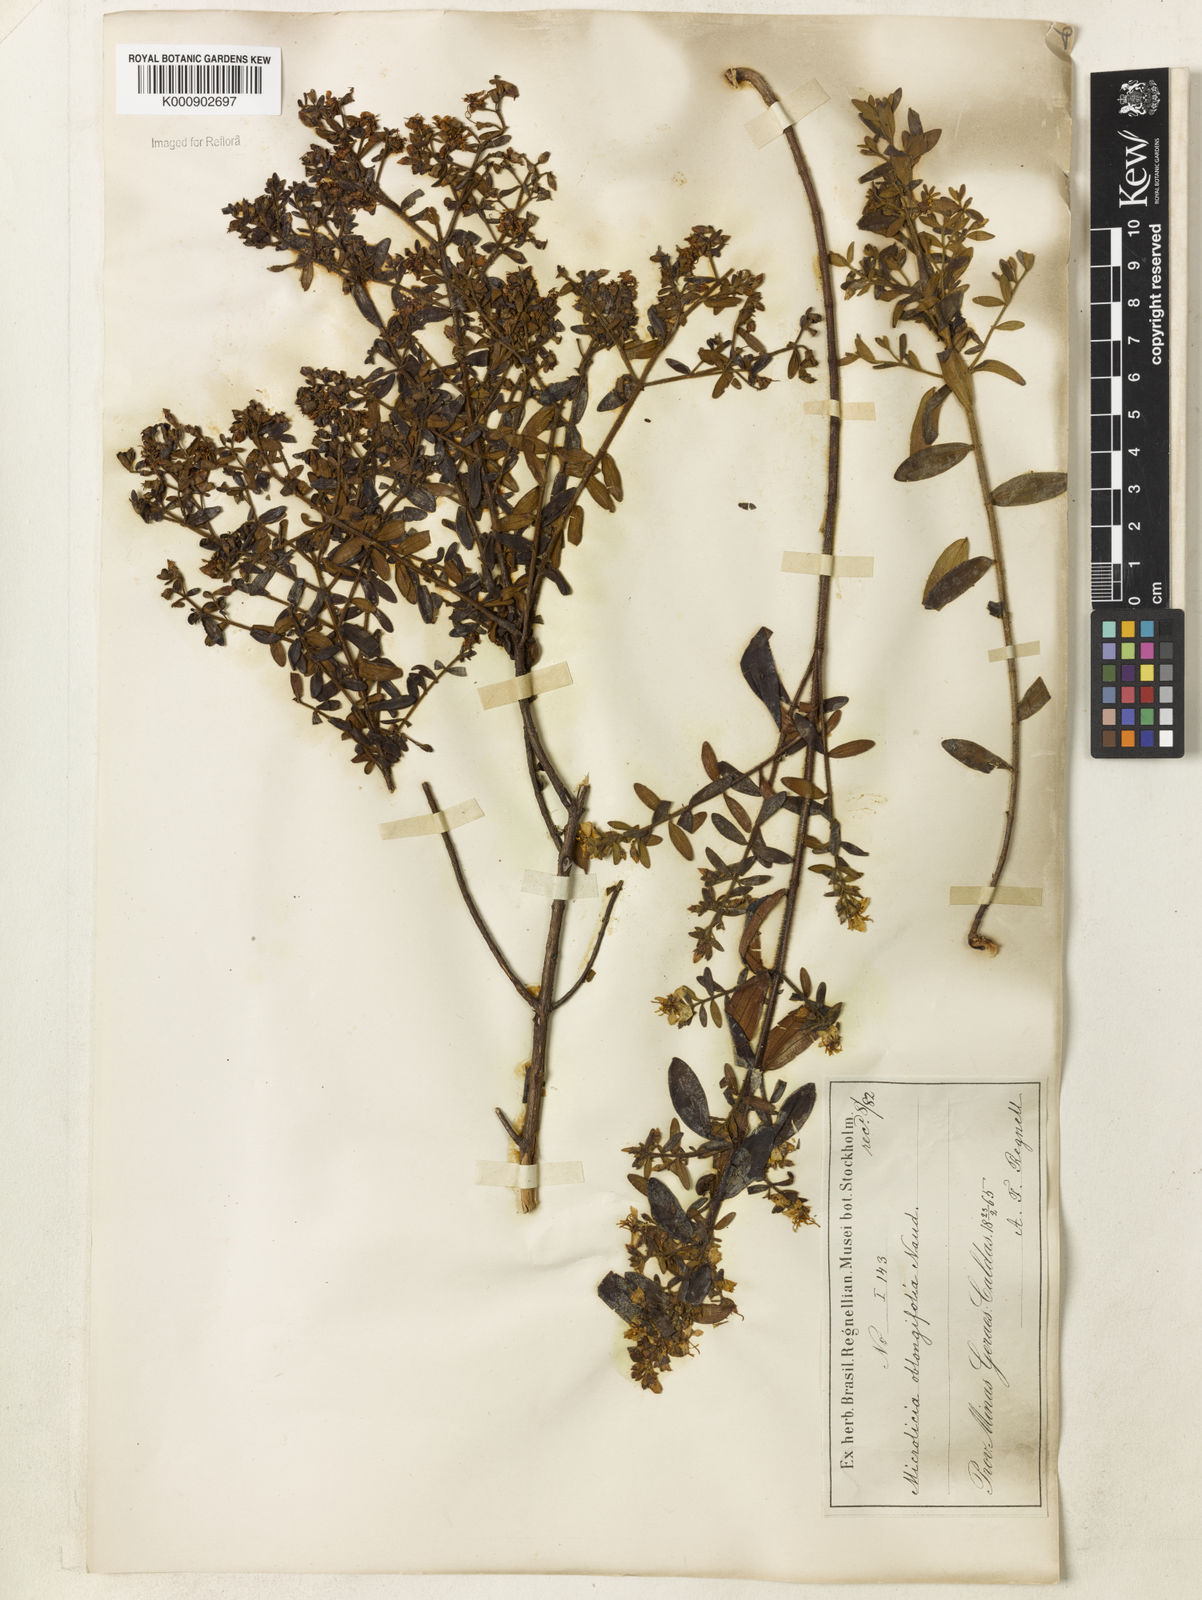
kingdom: Plantae
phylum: Tracheophyta
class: Magnoliopsida
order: Myrtales
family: Melastomataceae
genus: Microlicia
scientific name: Microlicia euphorbioides
